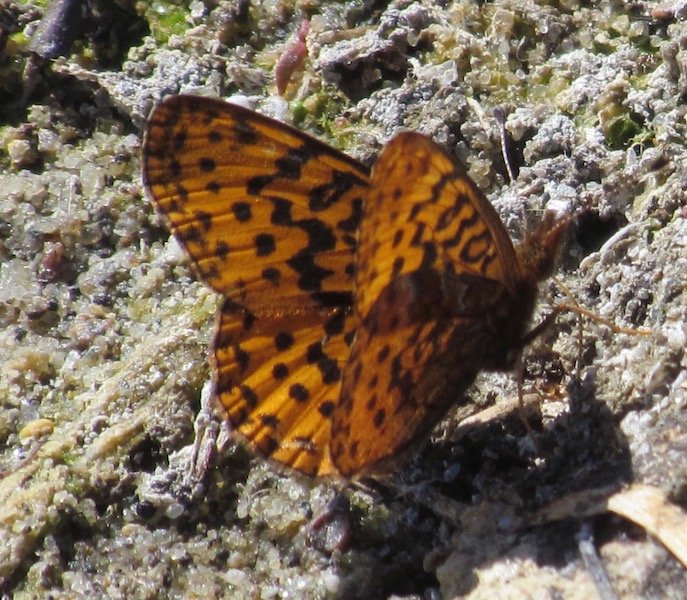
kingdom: Animalia
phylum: Arthropoda
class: Insecta
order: Lepidoptera
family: Nymphalidae
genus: Clossiana
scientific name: Clossiana toddi
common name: Meadow Fritillary
